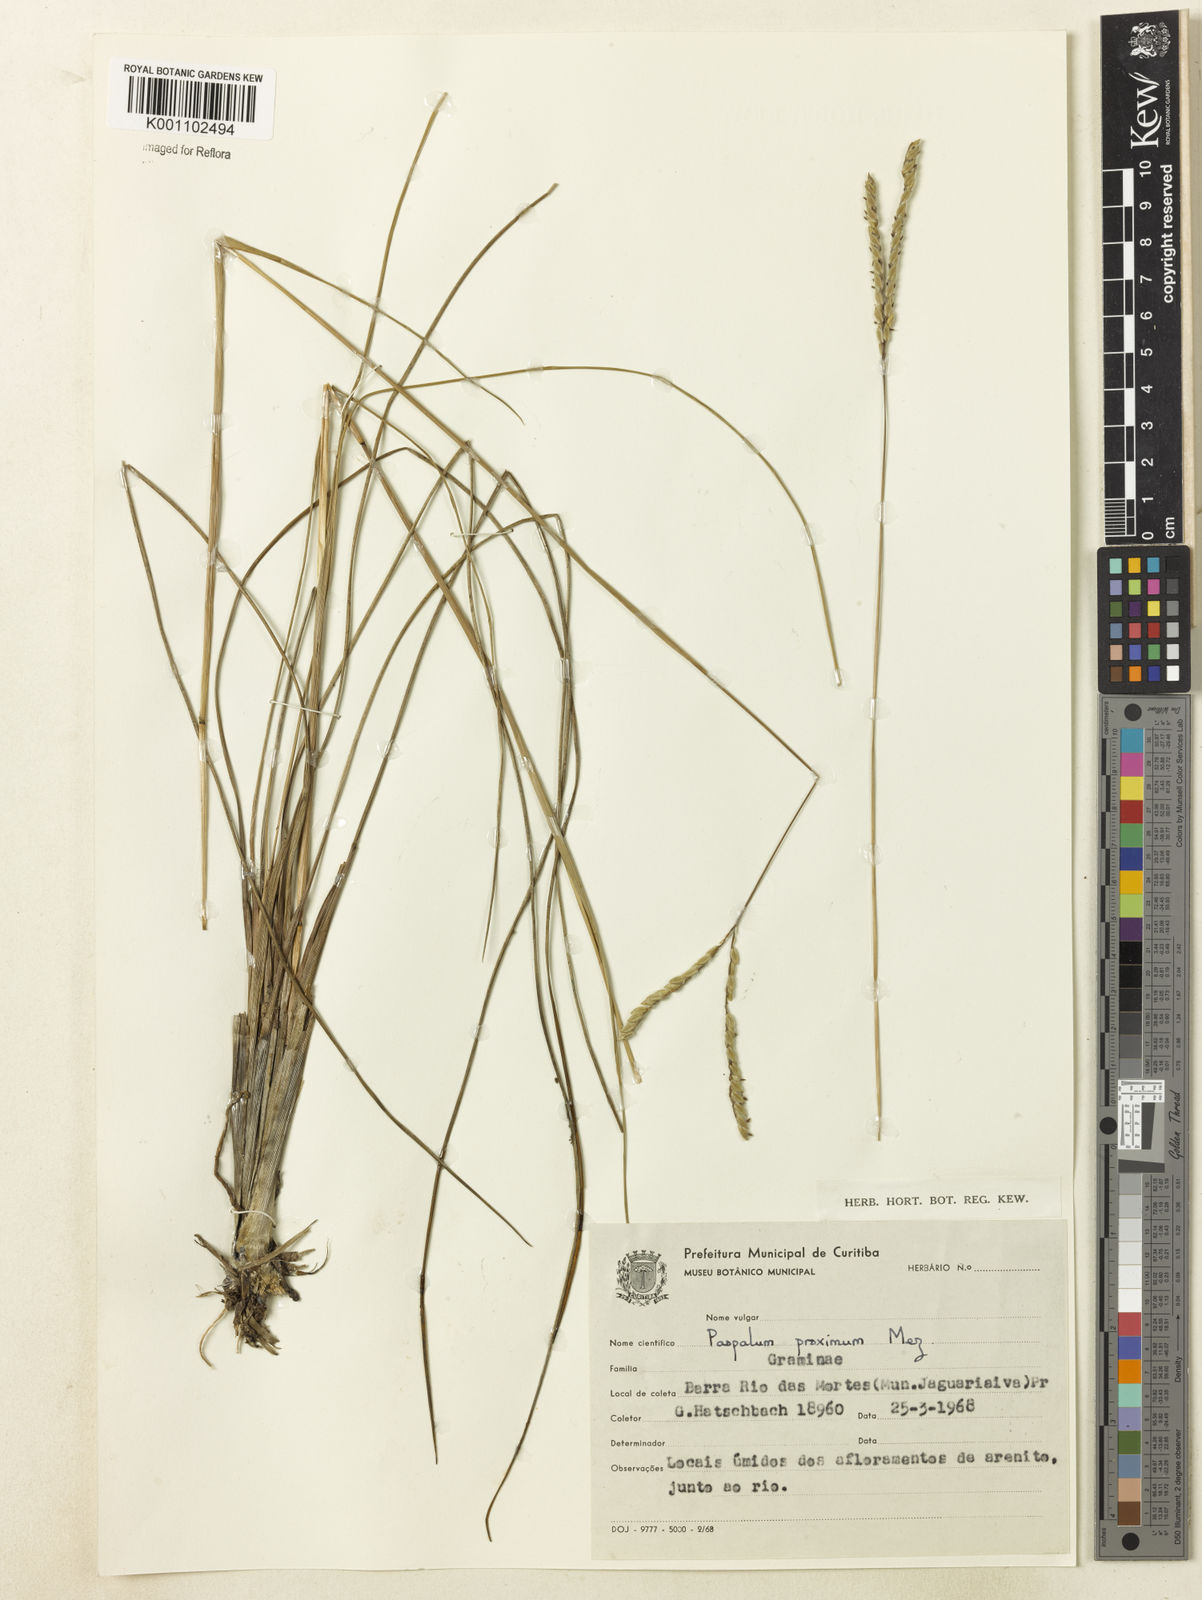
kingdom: Plantae
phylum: Tracheophyta
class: Liliopsida
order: Poales
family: Poaceae
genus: Paspalum
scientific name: Paspalum ellipticum
